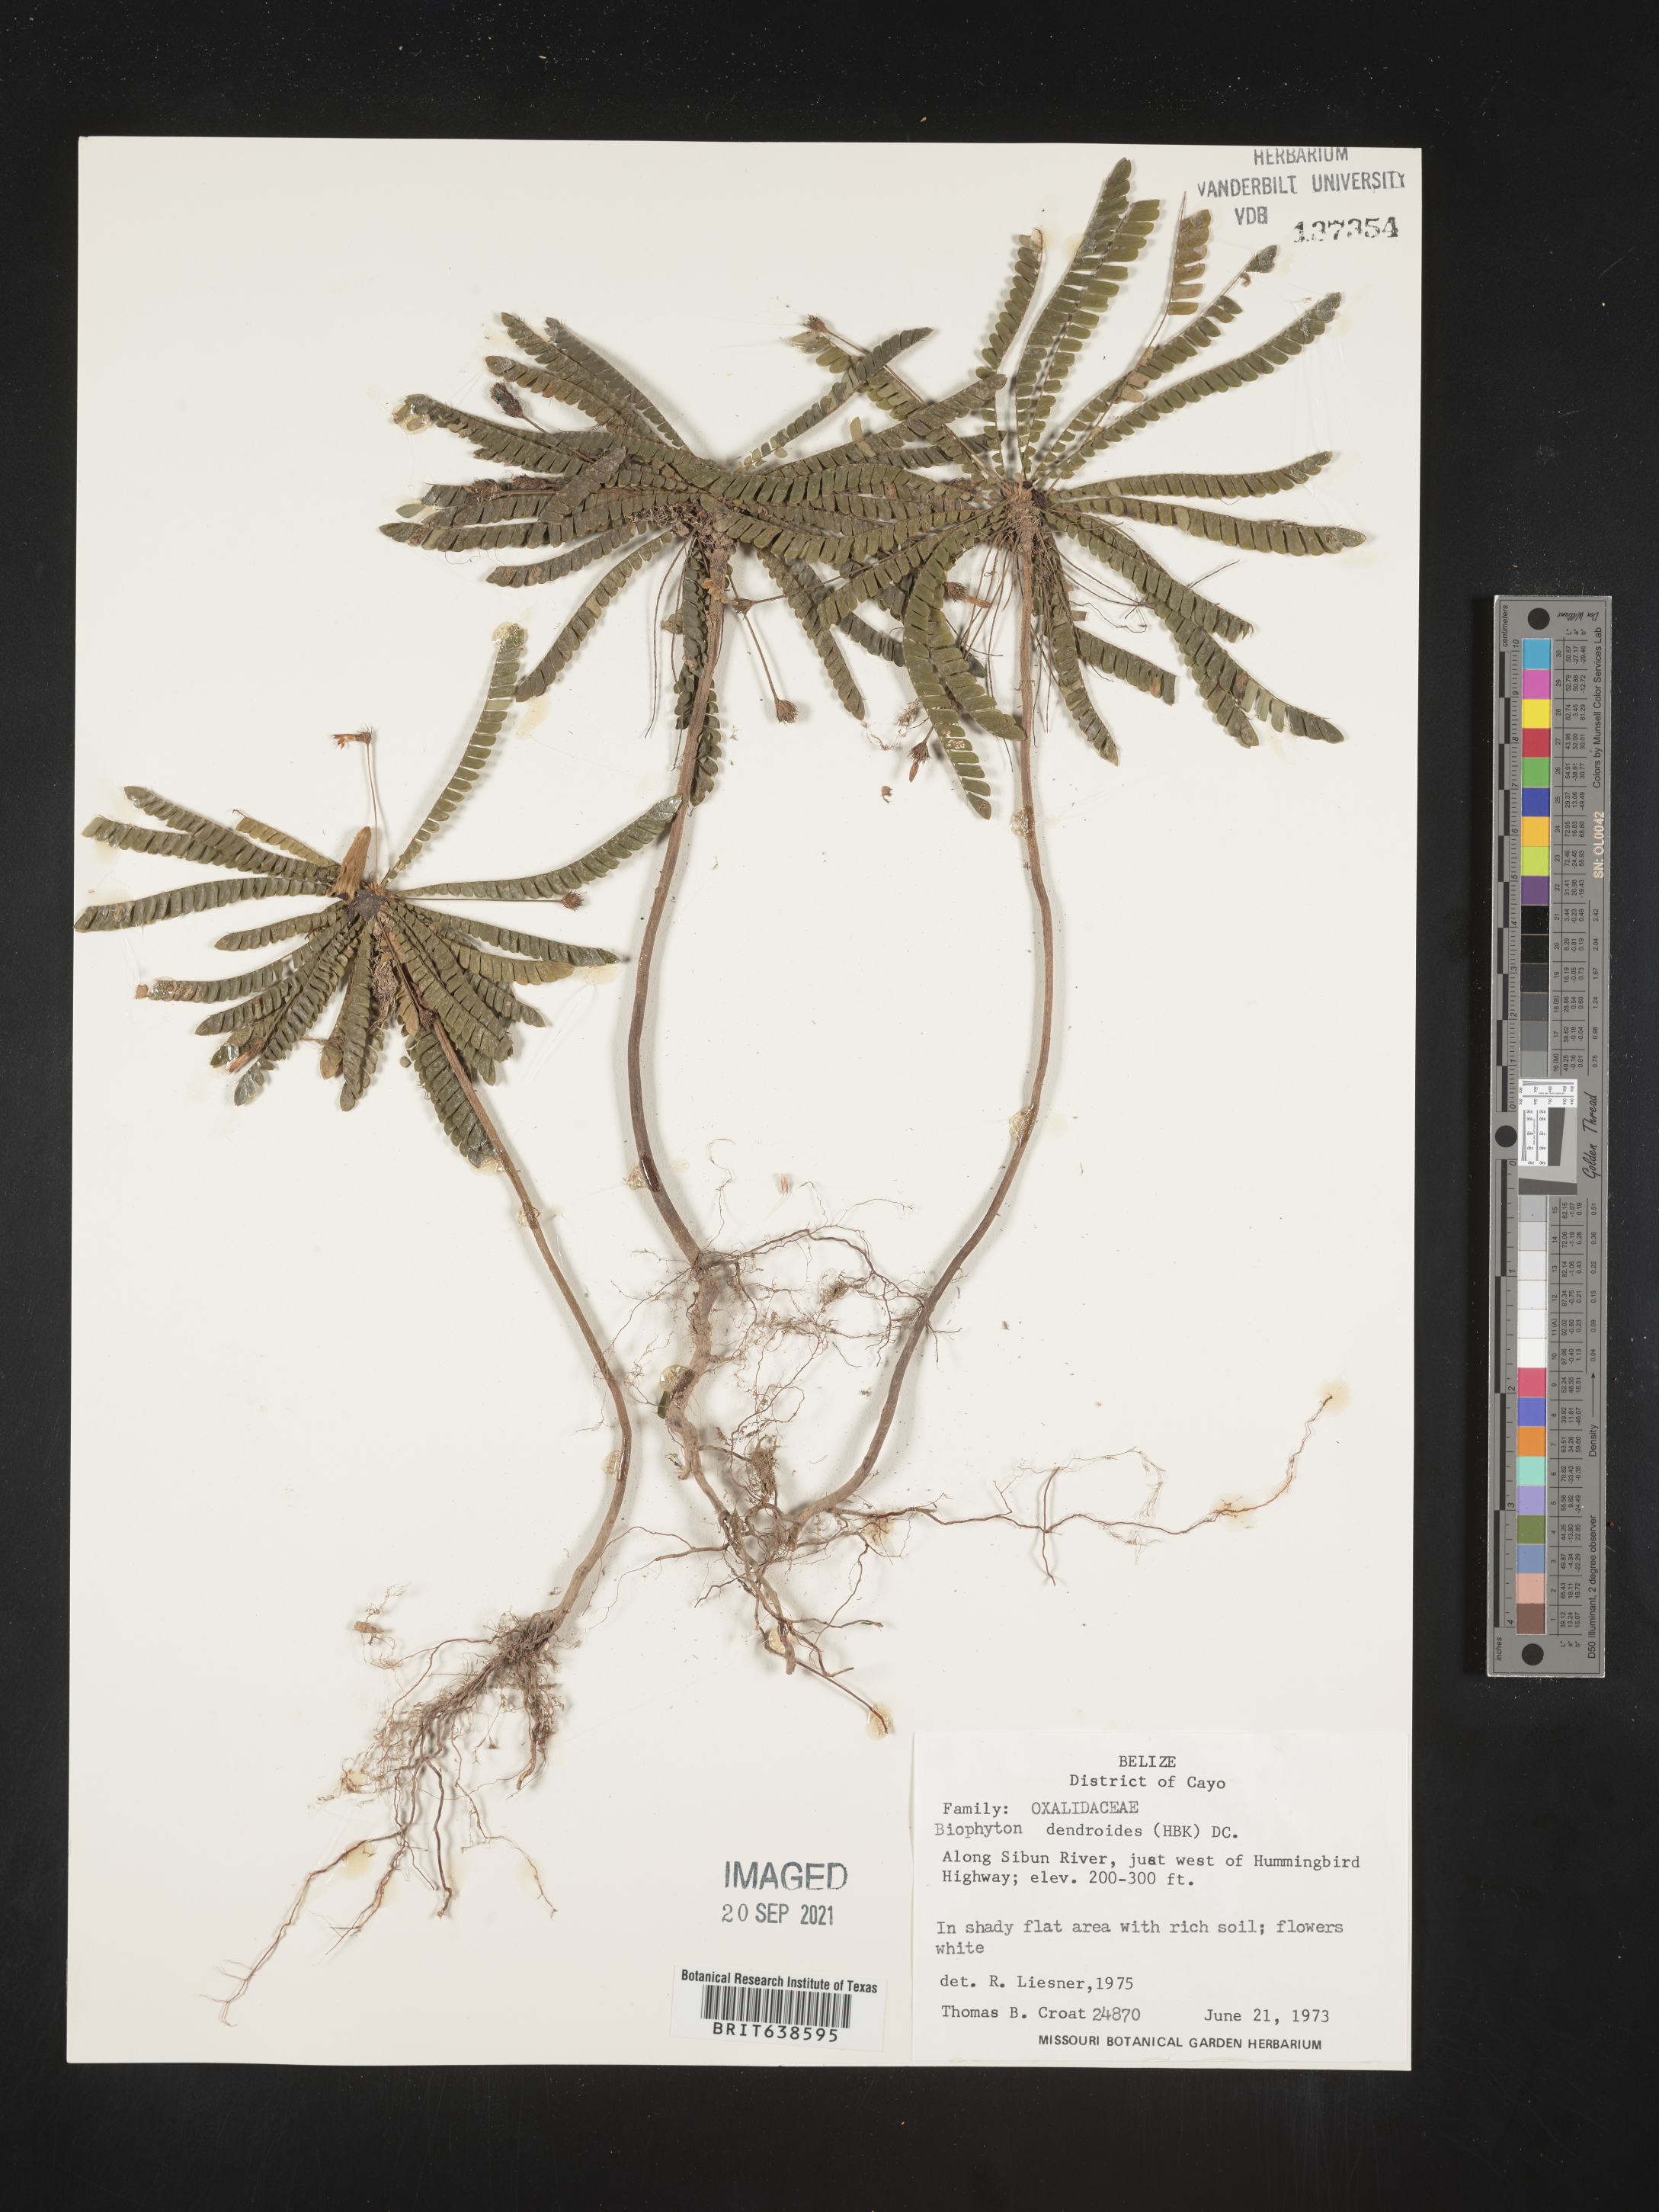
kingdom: Plantae
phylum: Tracheophyta
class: Magnoliopsida
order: Oxalidales
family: Oxalidaceae
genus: Biophytum
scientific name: Biophytum
